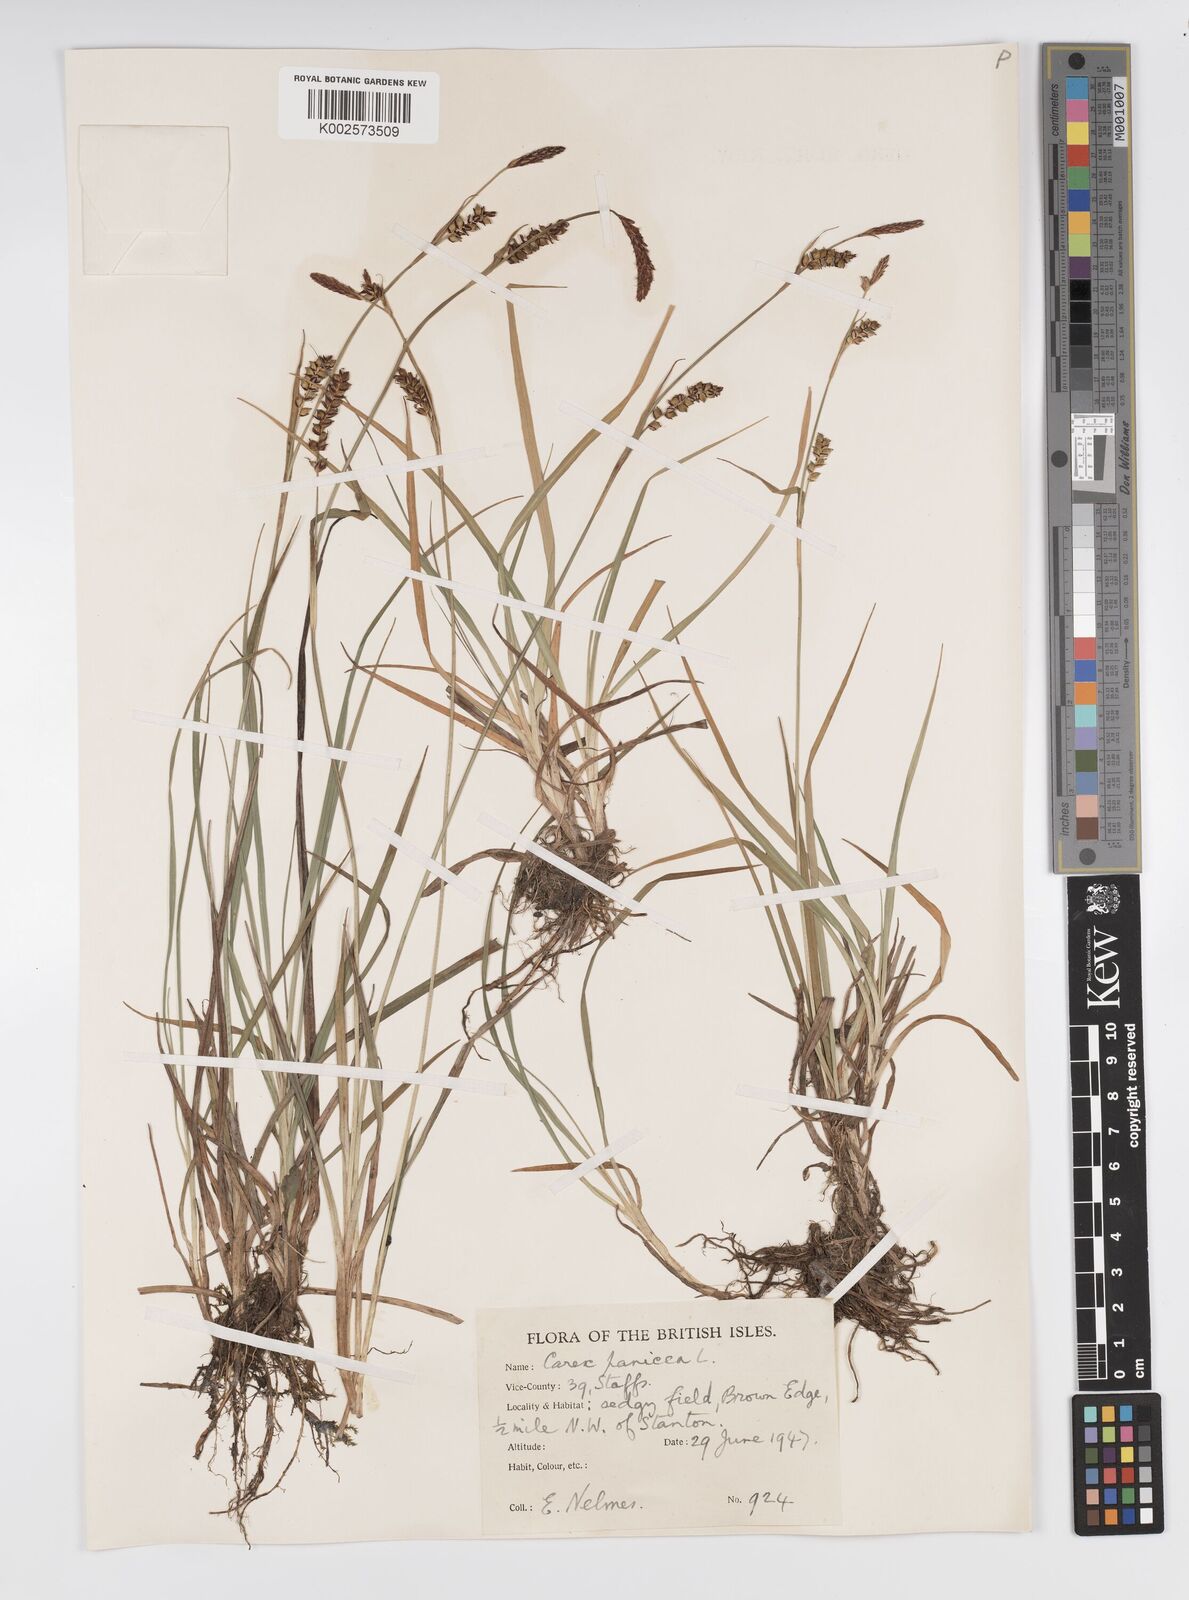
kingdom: Plantae
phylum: Tracheophyta
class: Liliopsida
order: Poales
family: Cyperaceae
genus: Carex
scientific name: Carex panicea
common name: Carnation sedge
